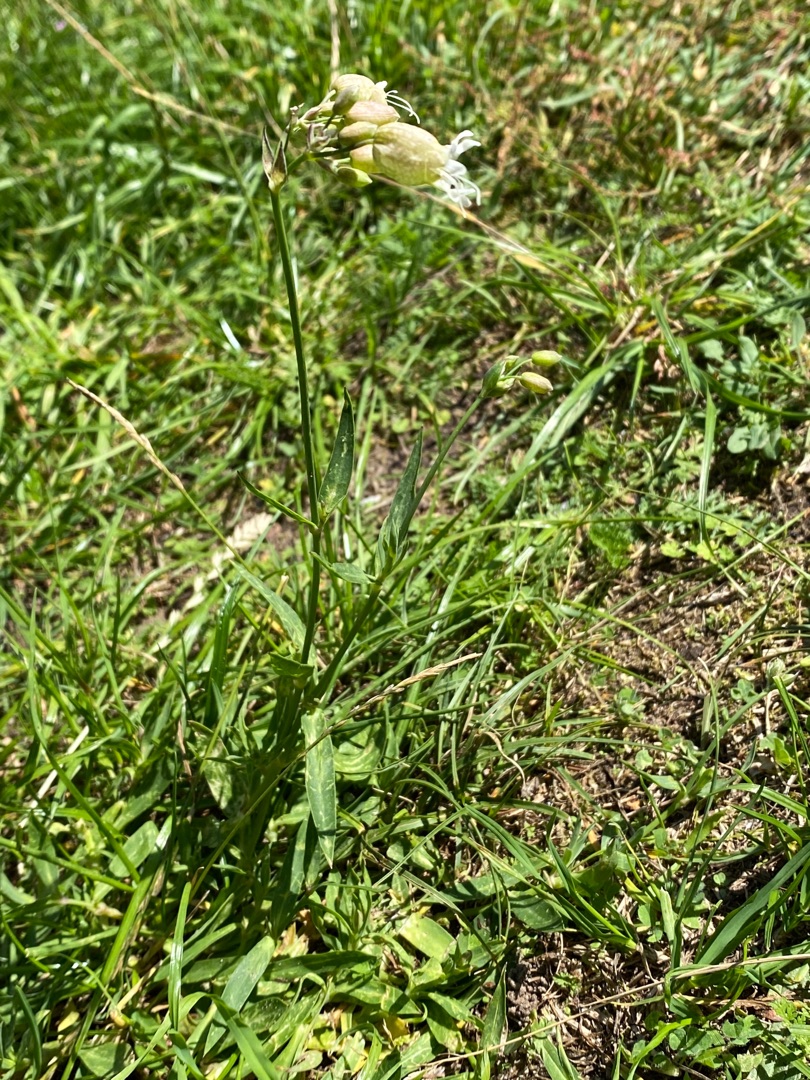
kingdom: Plantae
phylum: Tracheophyta
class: Magnoliopsida
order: Caryophyllales
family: Caryophyllaceae
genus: Silene
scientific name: Silene vulgaris
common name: Blæresmælde
